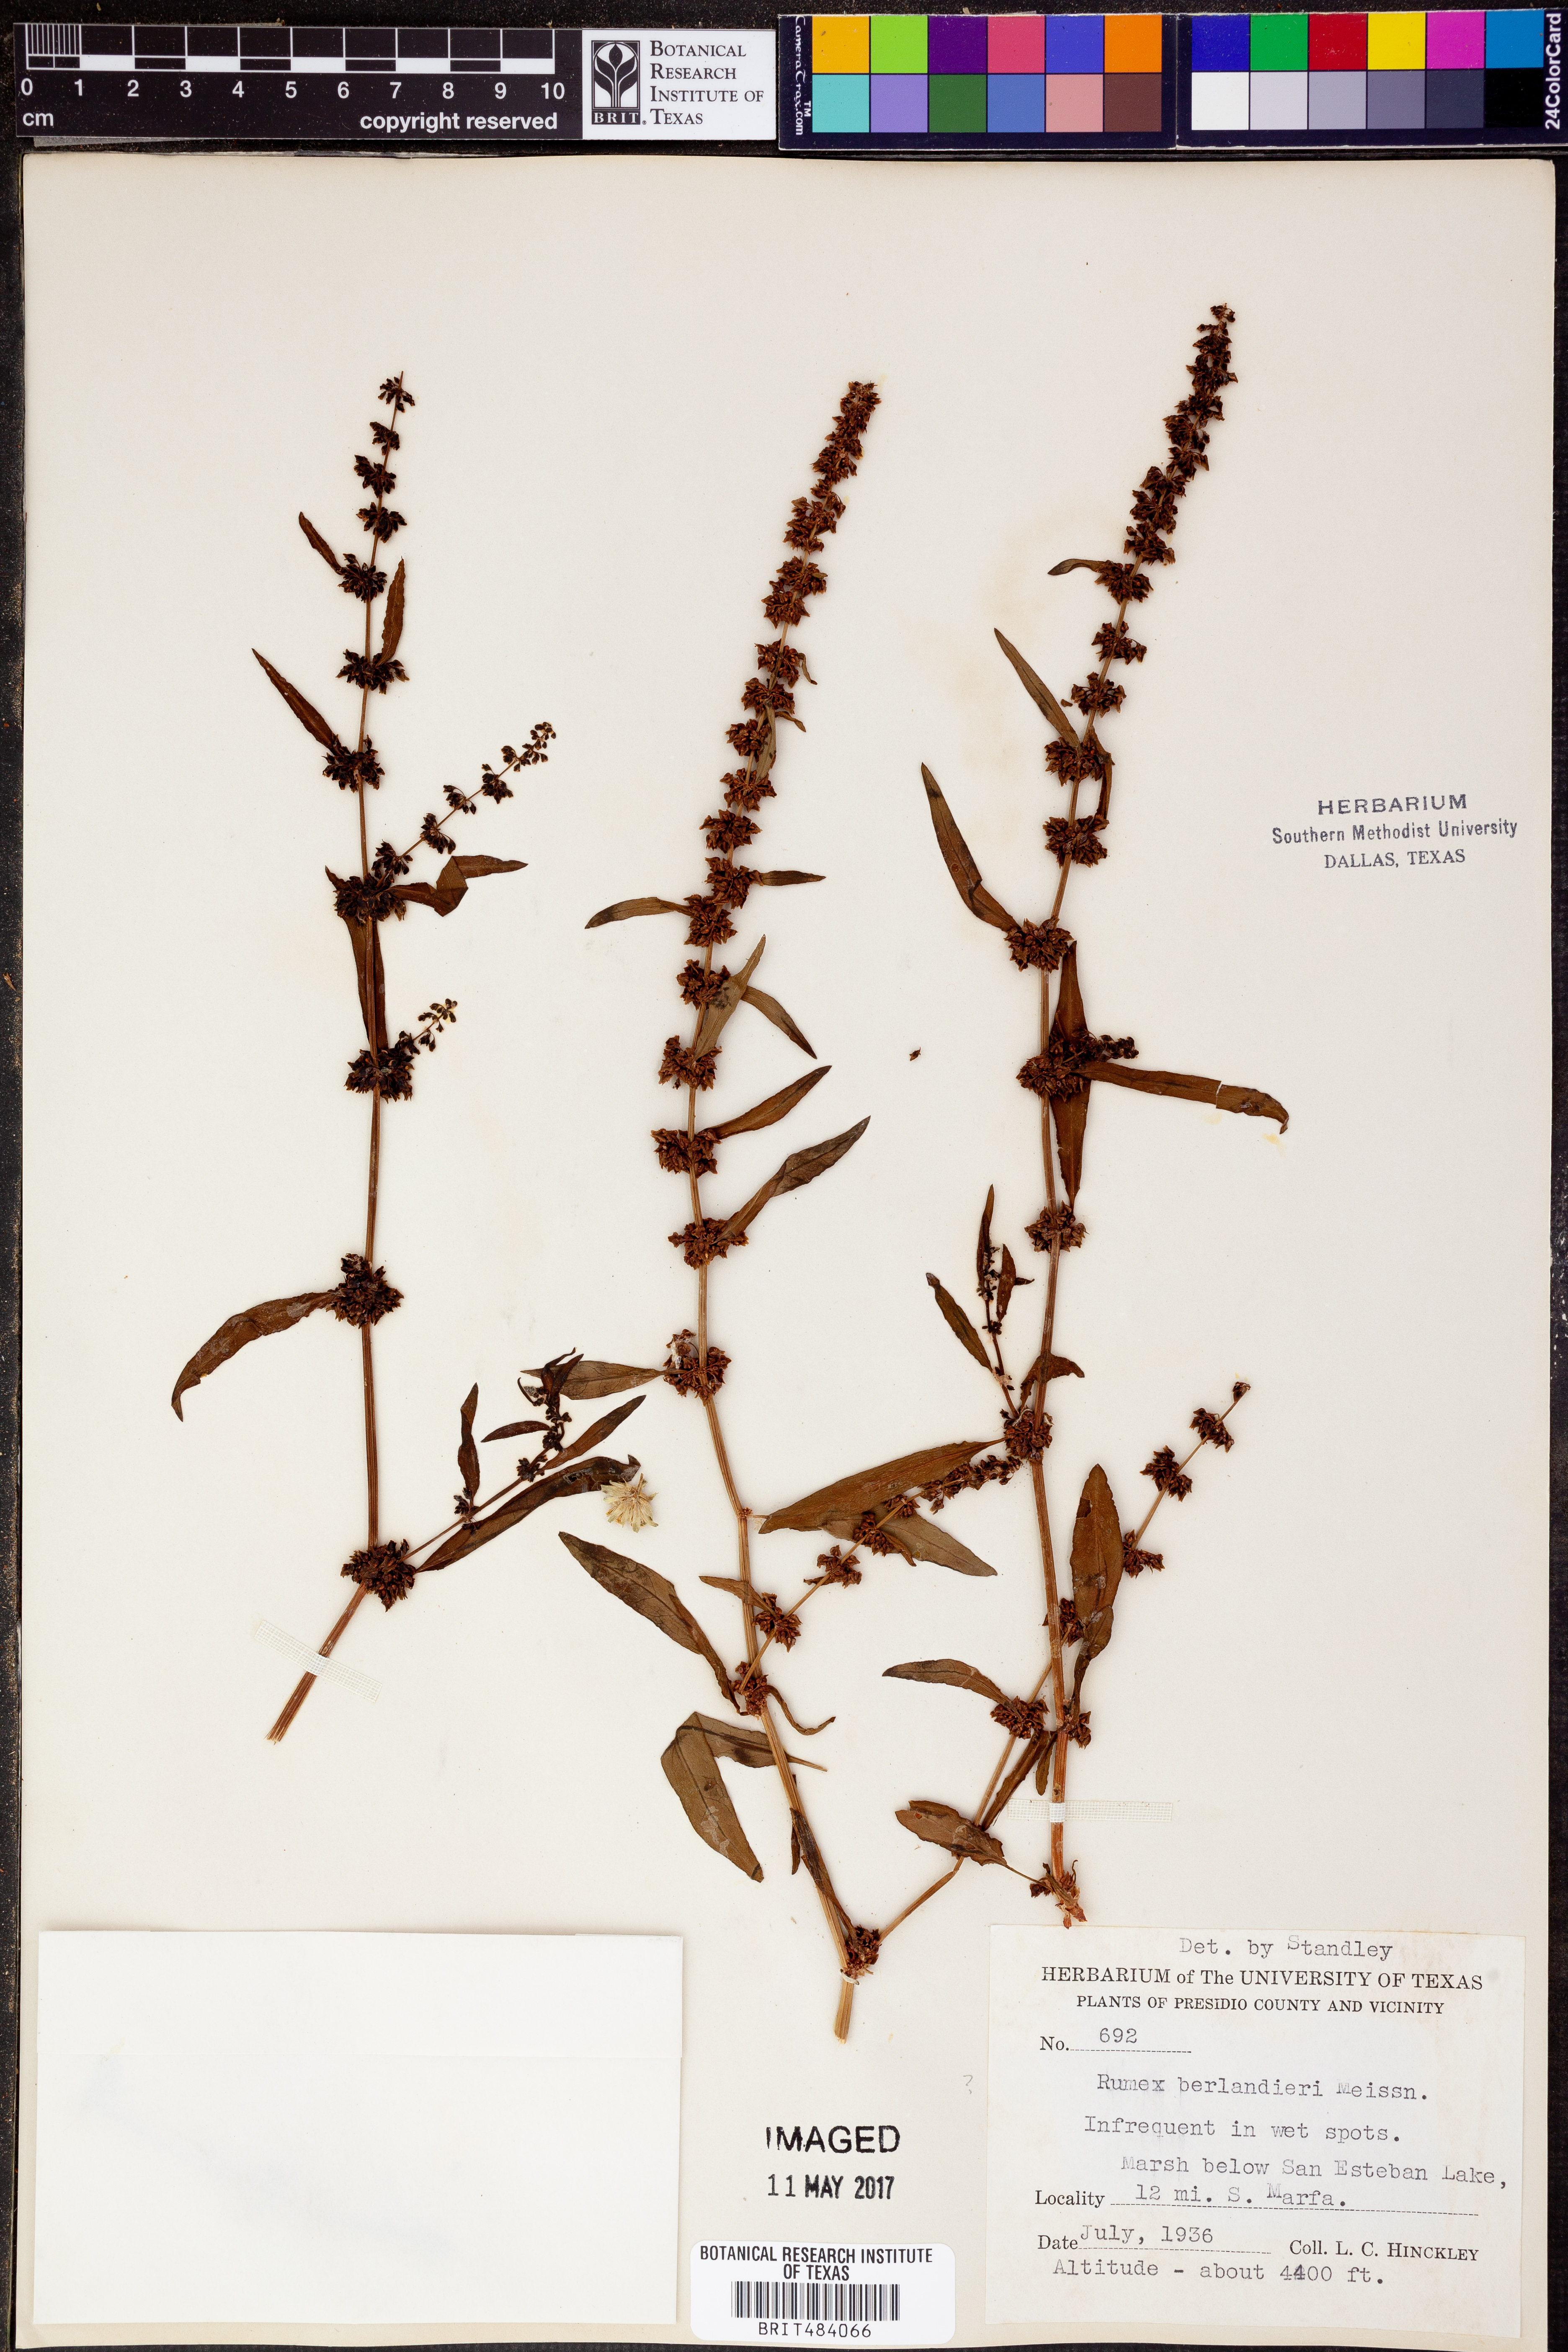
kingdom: Plantae
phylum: Tracheophyta
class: Magnoliopsida
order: Caryophyllales
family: Polygonaceae
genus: Rumex
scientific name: Rumex chrysocarpus
